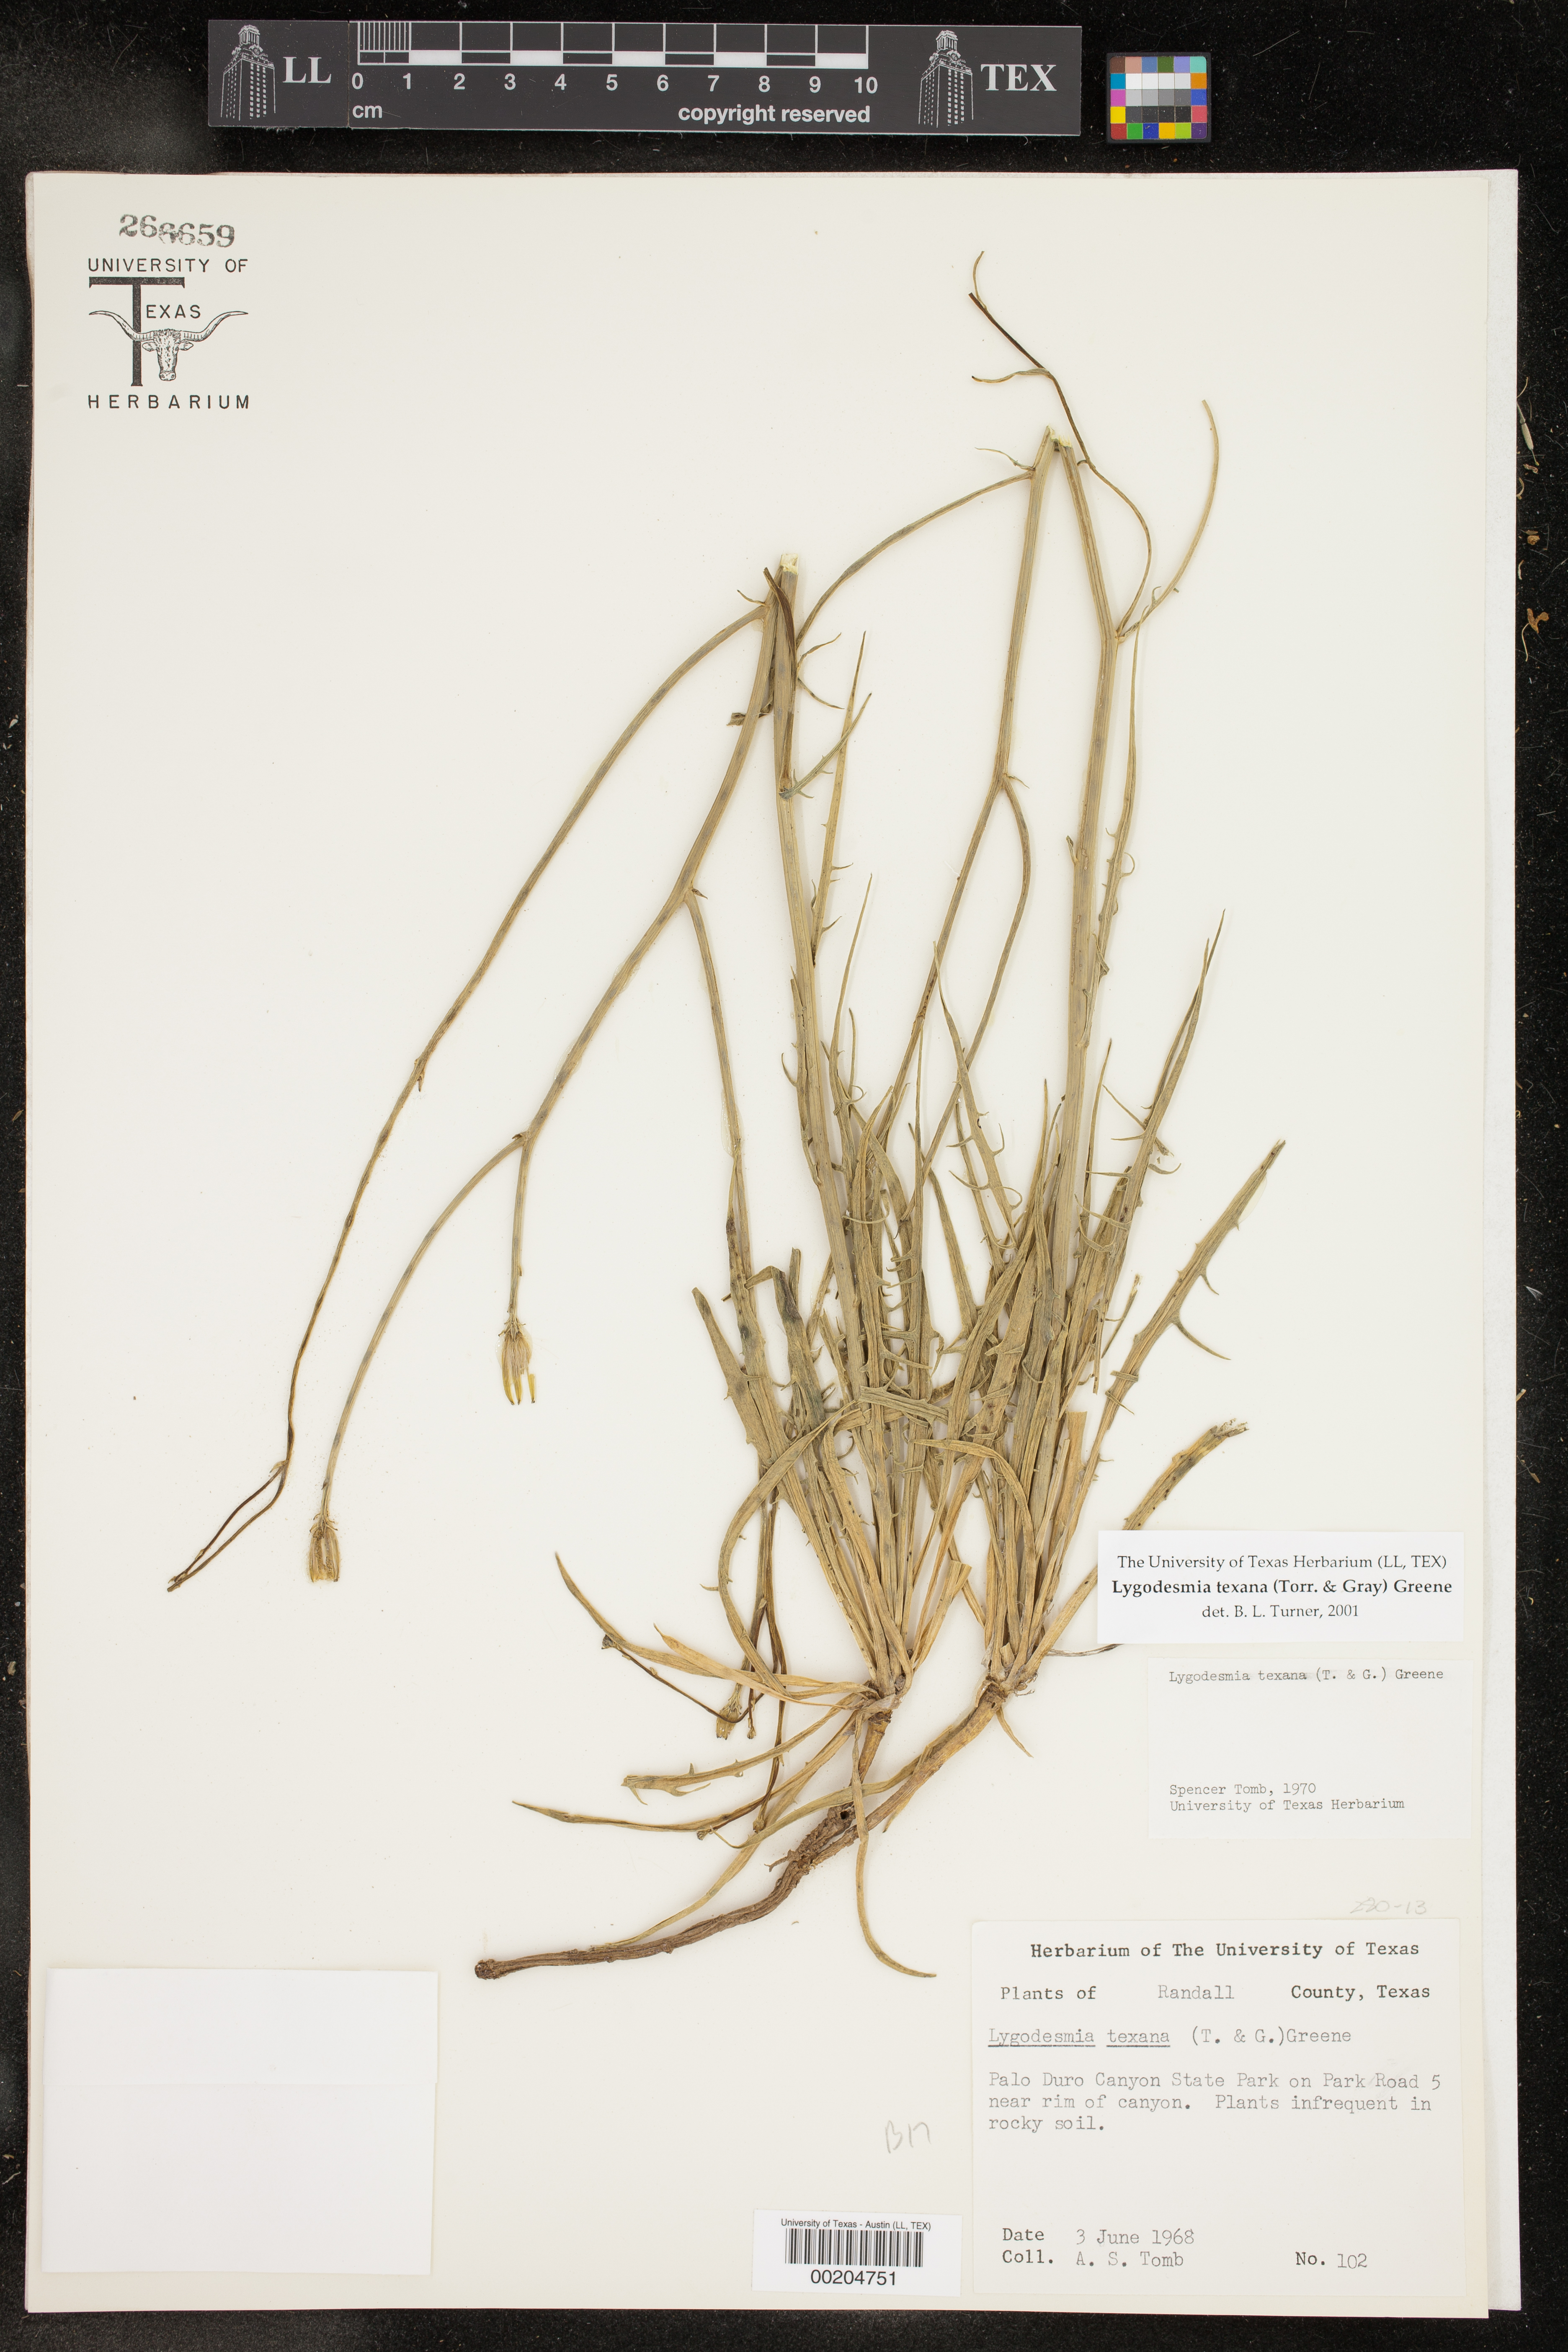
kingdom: Plantae
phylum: Tracheophyta
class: Magnoliopsida
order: Asterales
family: Asteraceae
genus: Lygodesmia
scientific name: Lygodesmia texana
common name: Texas skeleton-plant
